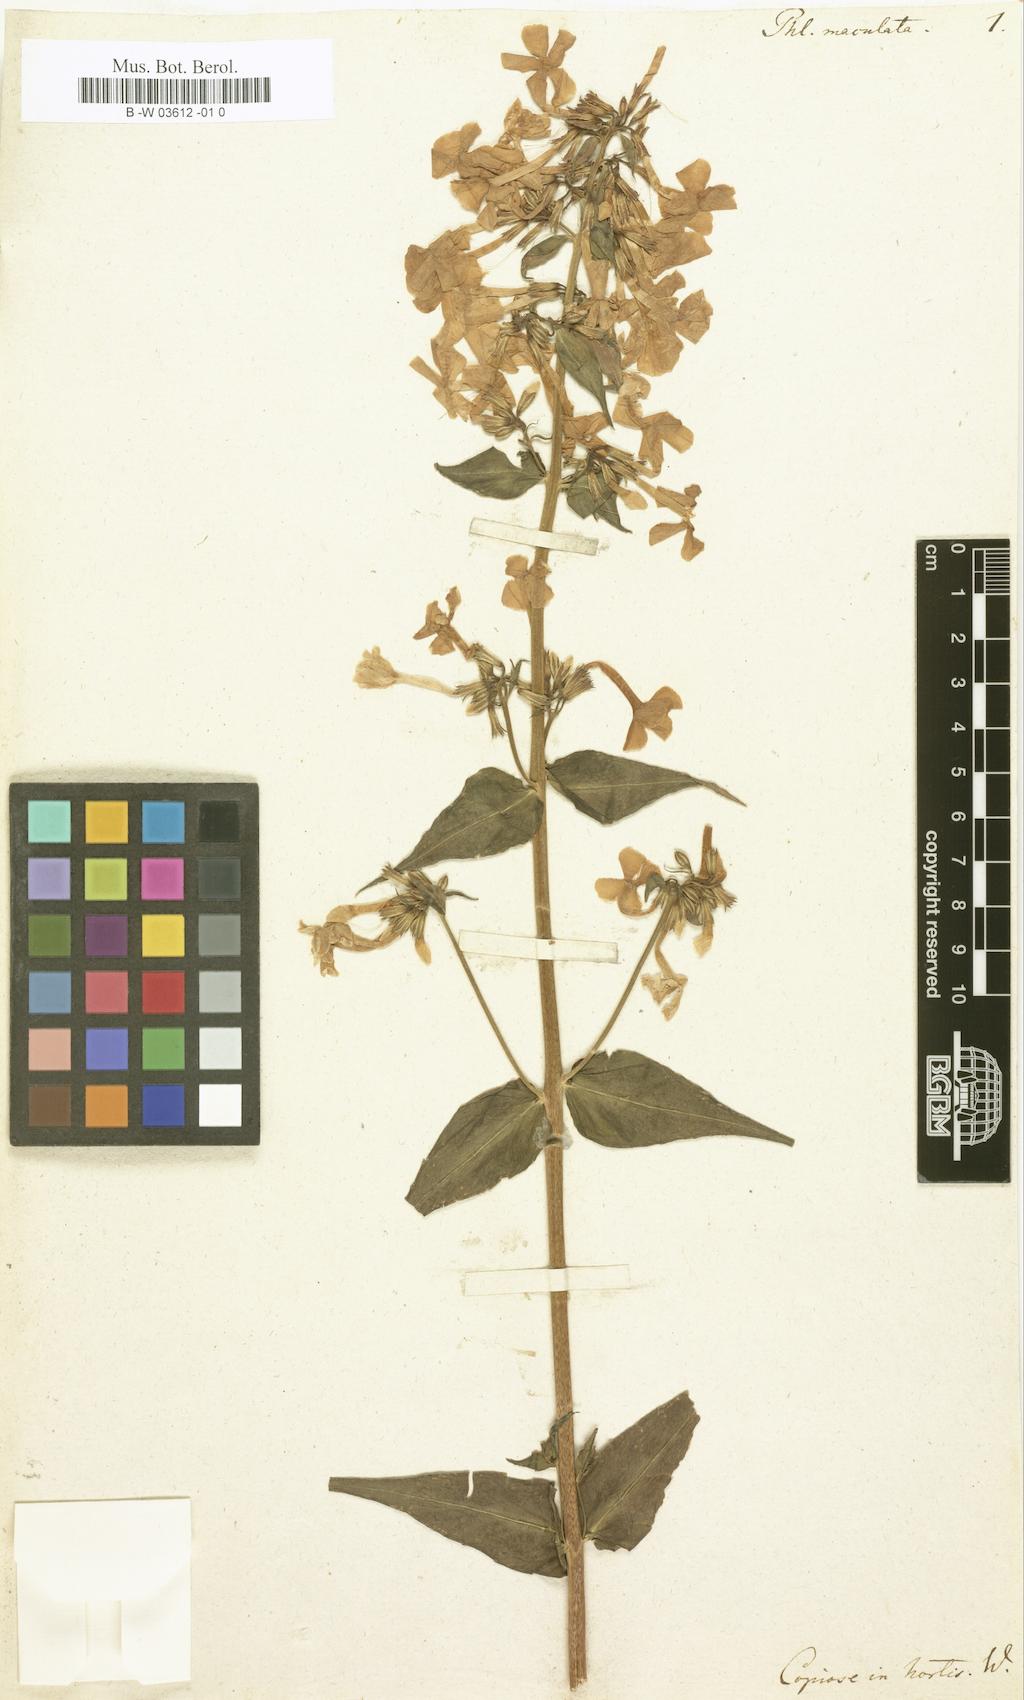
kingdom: Plantae
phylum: Tracheophyta
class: Magnoliopsida
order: Ericales
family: Polemoniaceae
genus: Phlox
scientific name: Phlox maculata
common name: Meadow phlox
